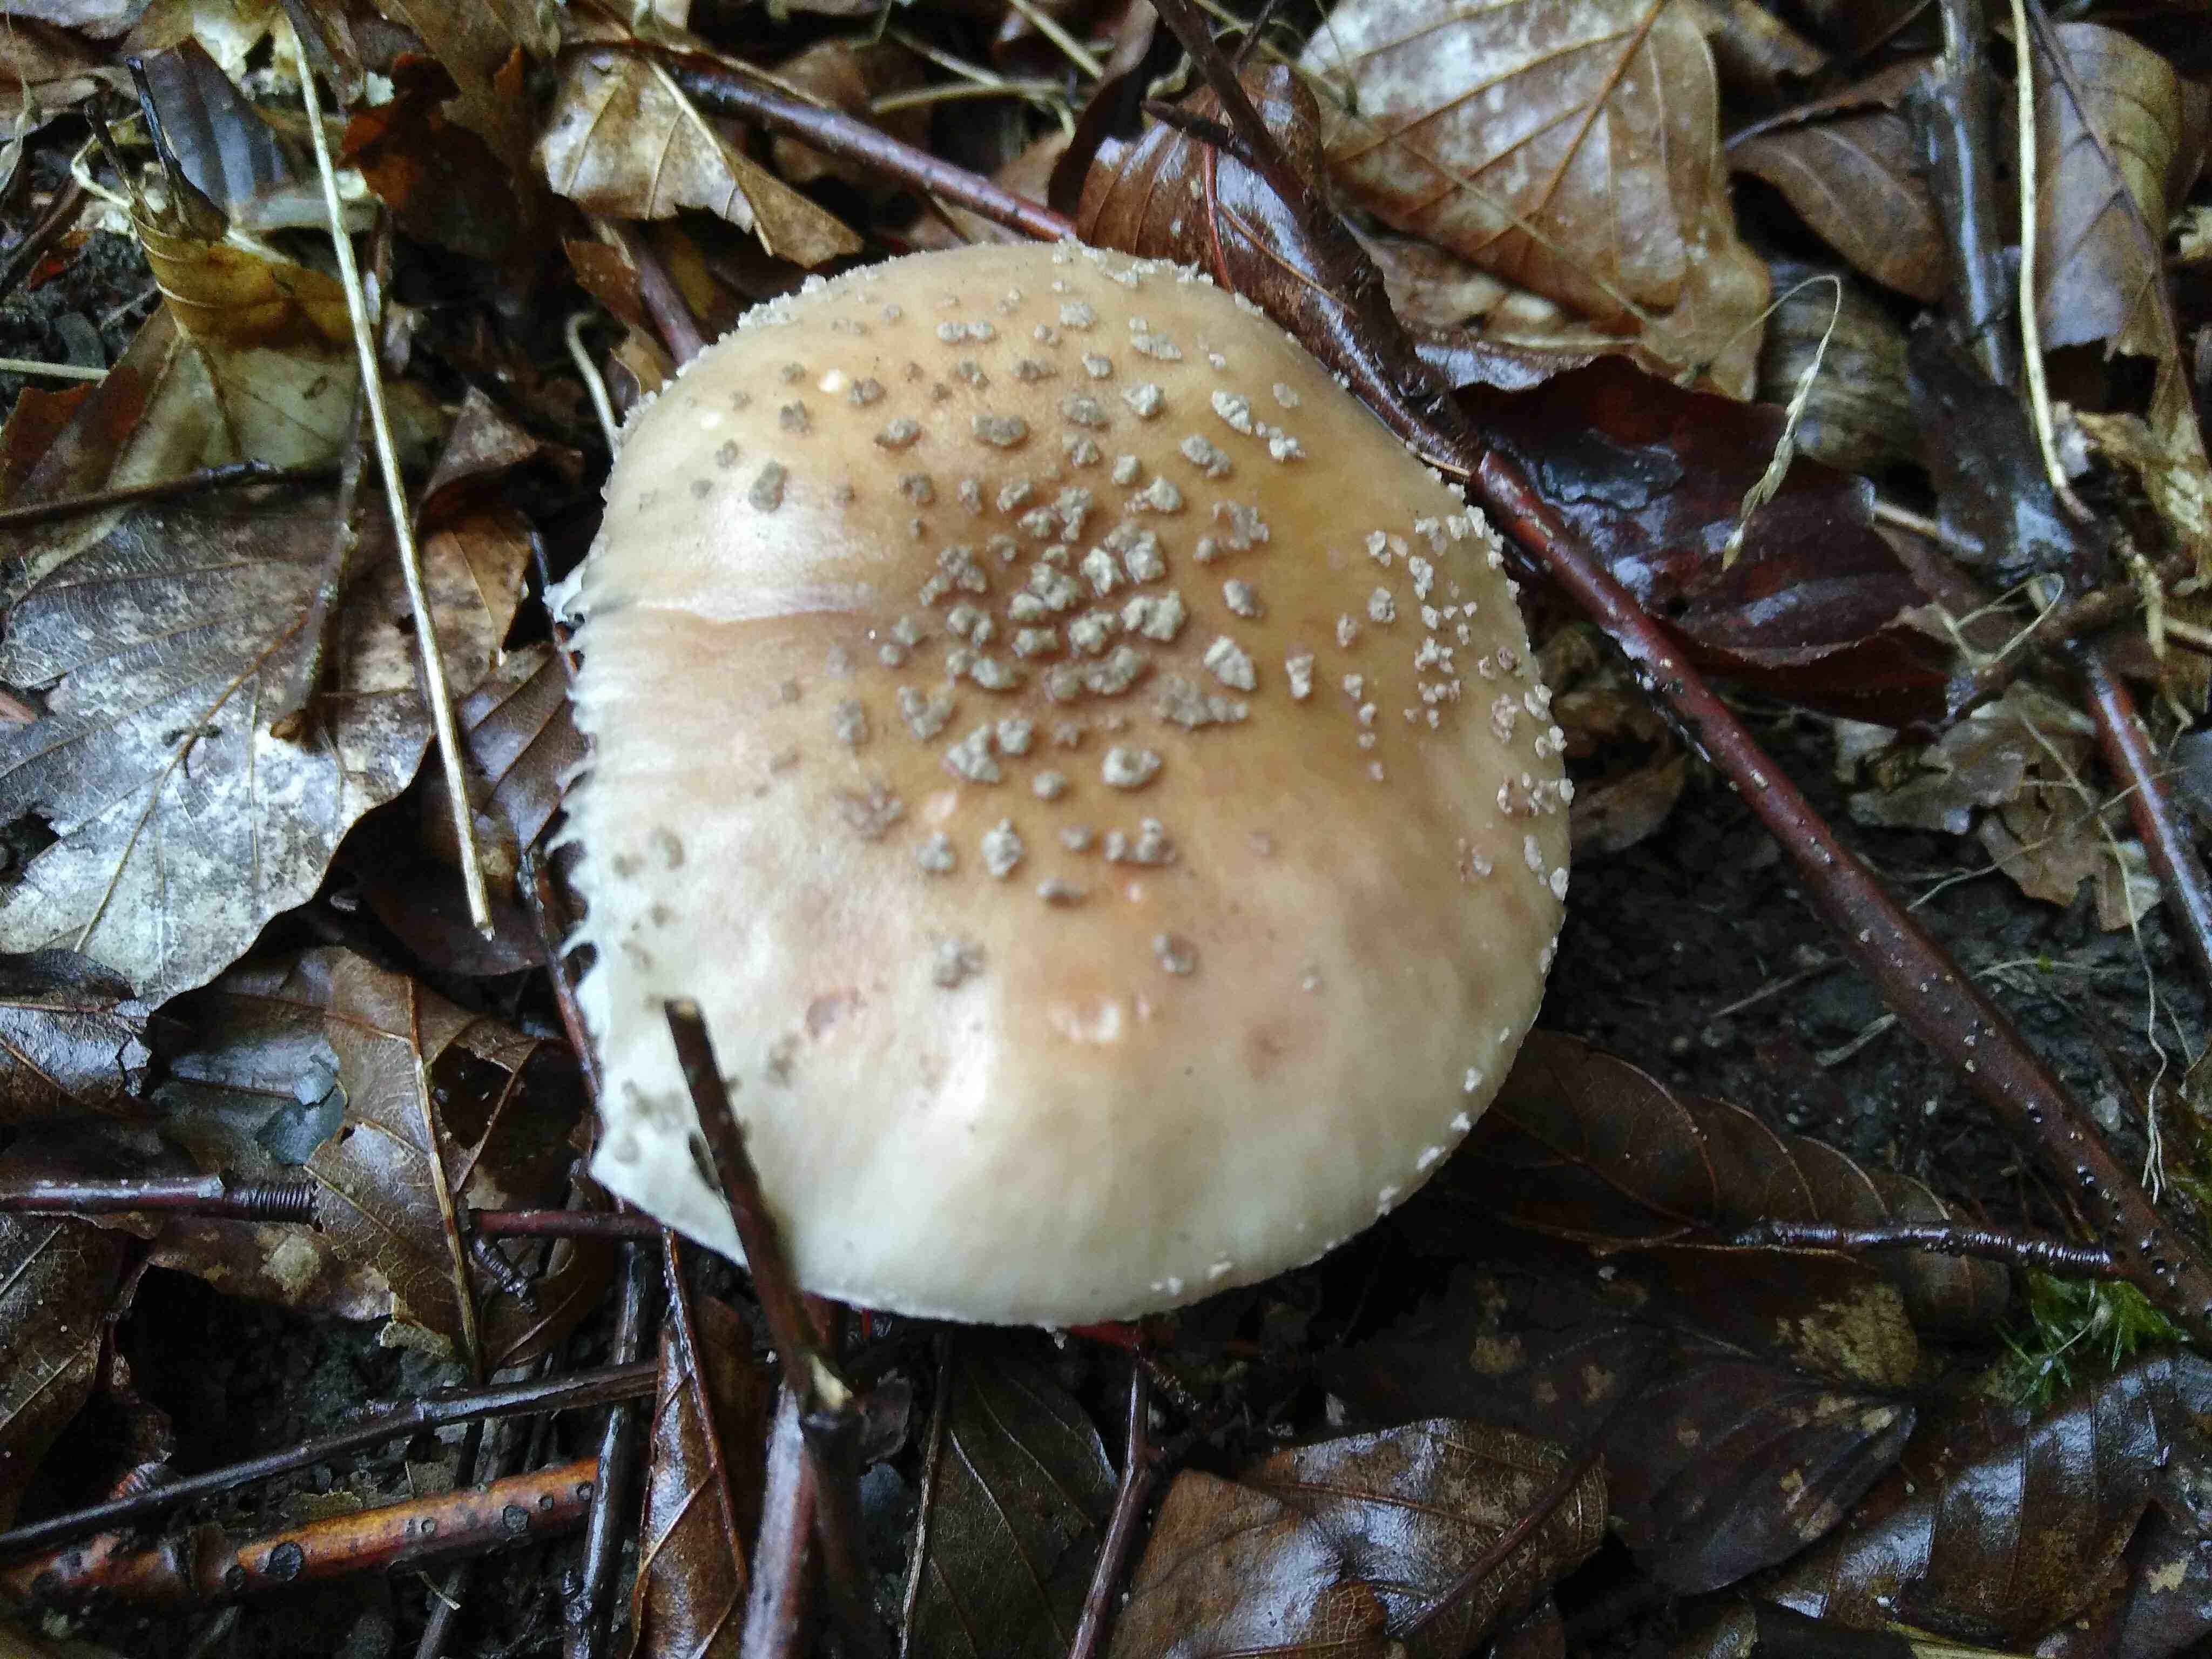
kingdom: Fungi
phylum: Basidiomycota
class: Agaricomycetes
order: Agaricales
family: Amanitaceae
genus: Amanita
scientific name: Amanita rubescens
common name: rødmende fluesvamp
